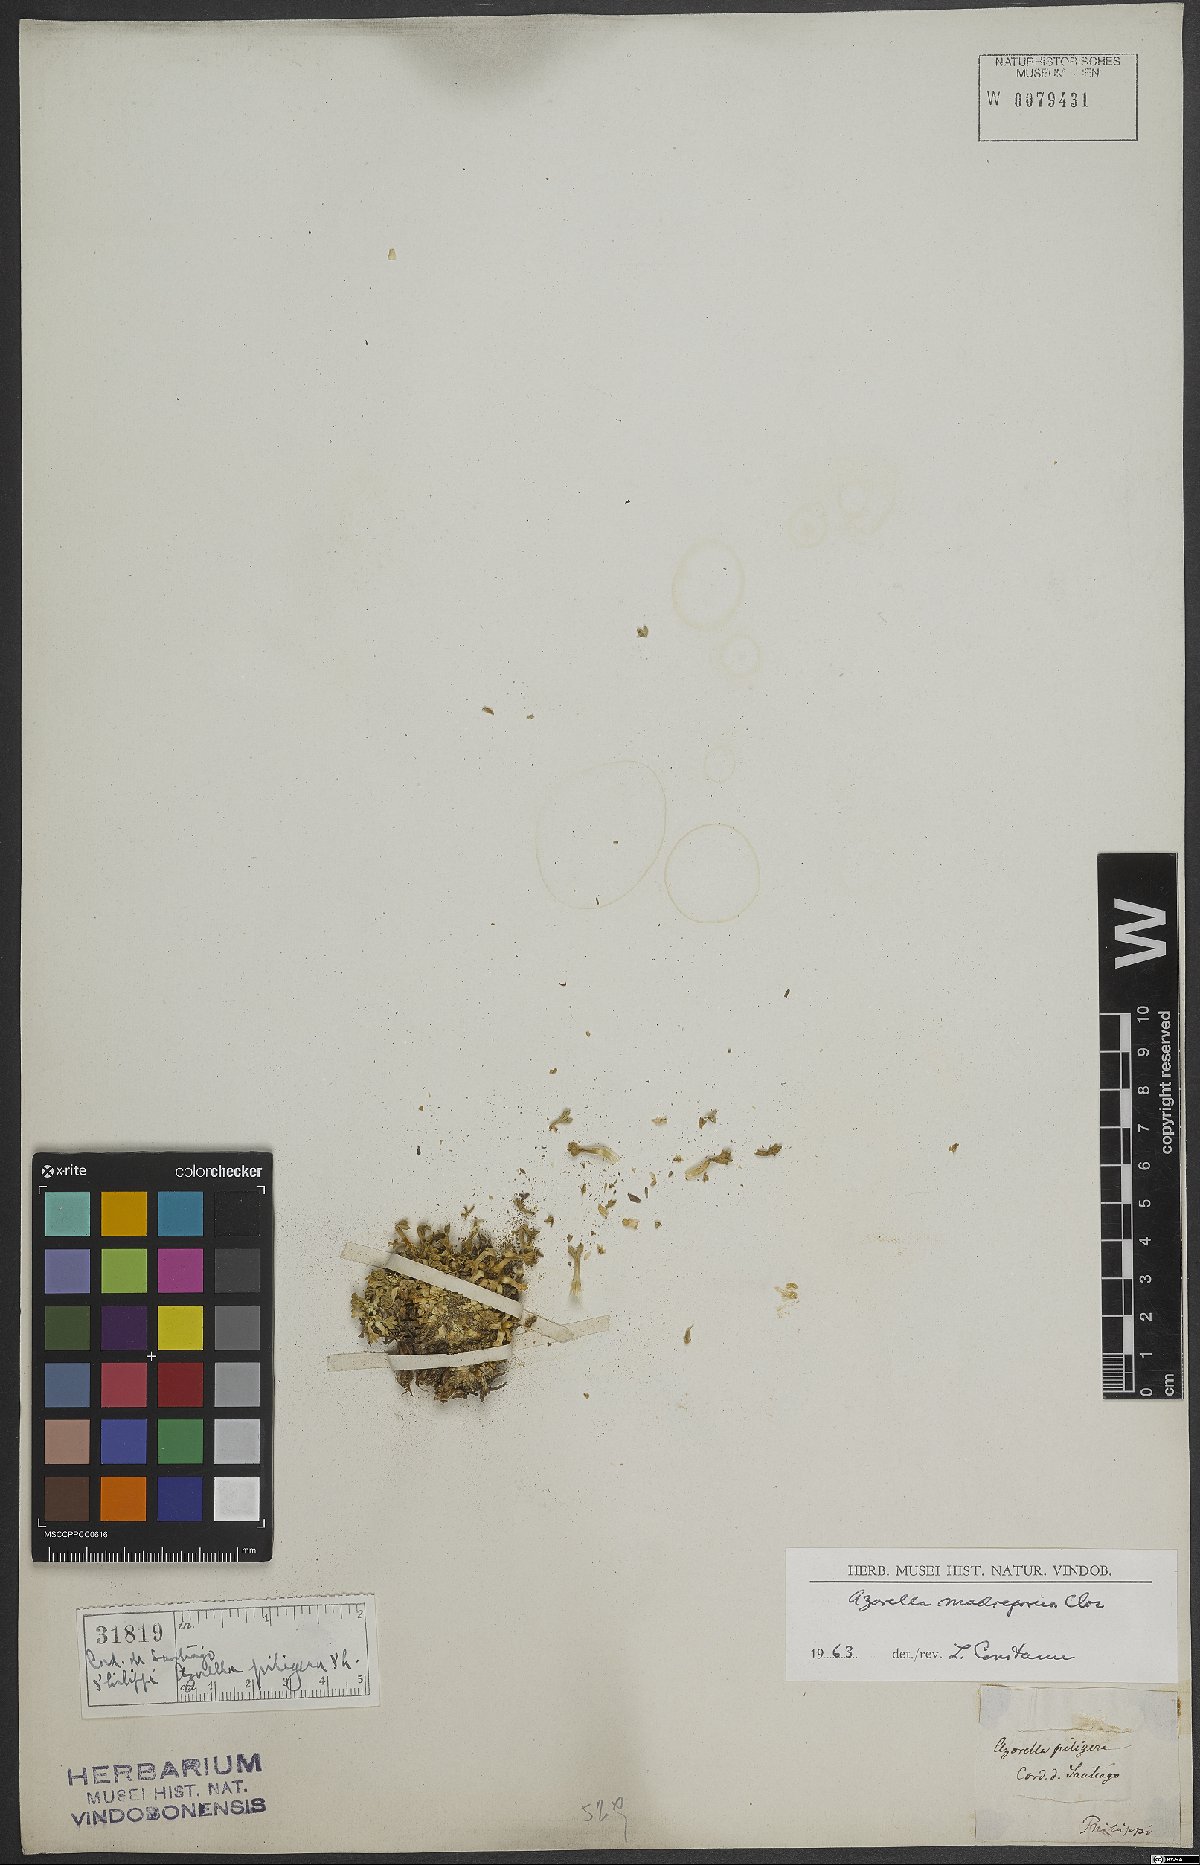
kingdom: Plantae
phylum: Tracheophyta
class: Magnoliopsida
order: Apiales
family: Apiaceae
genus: Azorella
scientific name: Azorella madreporica
